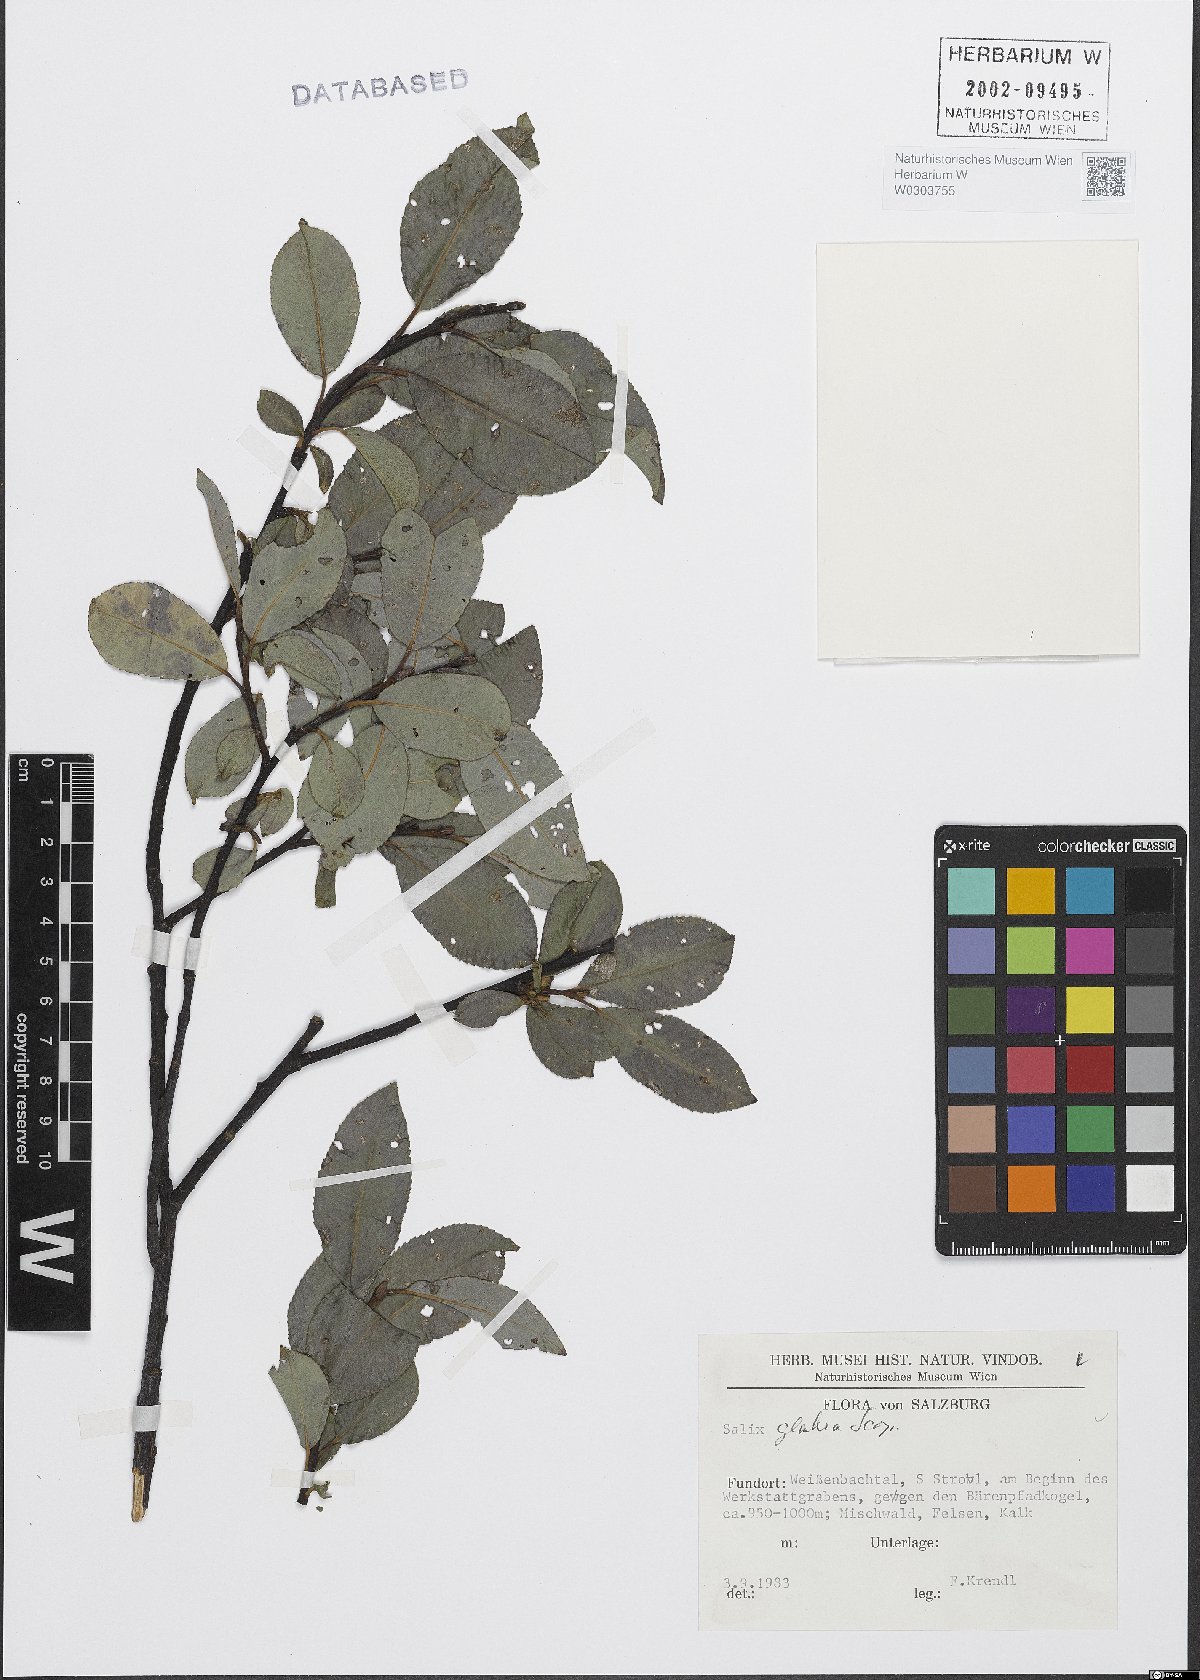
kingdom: Plantae
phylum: Tracheophyta
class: Magnoliopsida
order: Malpighiales
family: Salicaceae
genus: Salix
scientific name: Salix glabra
